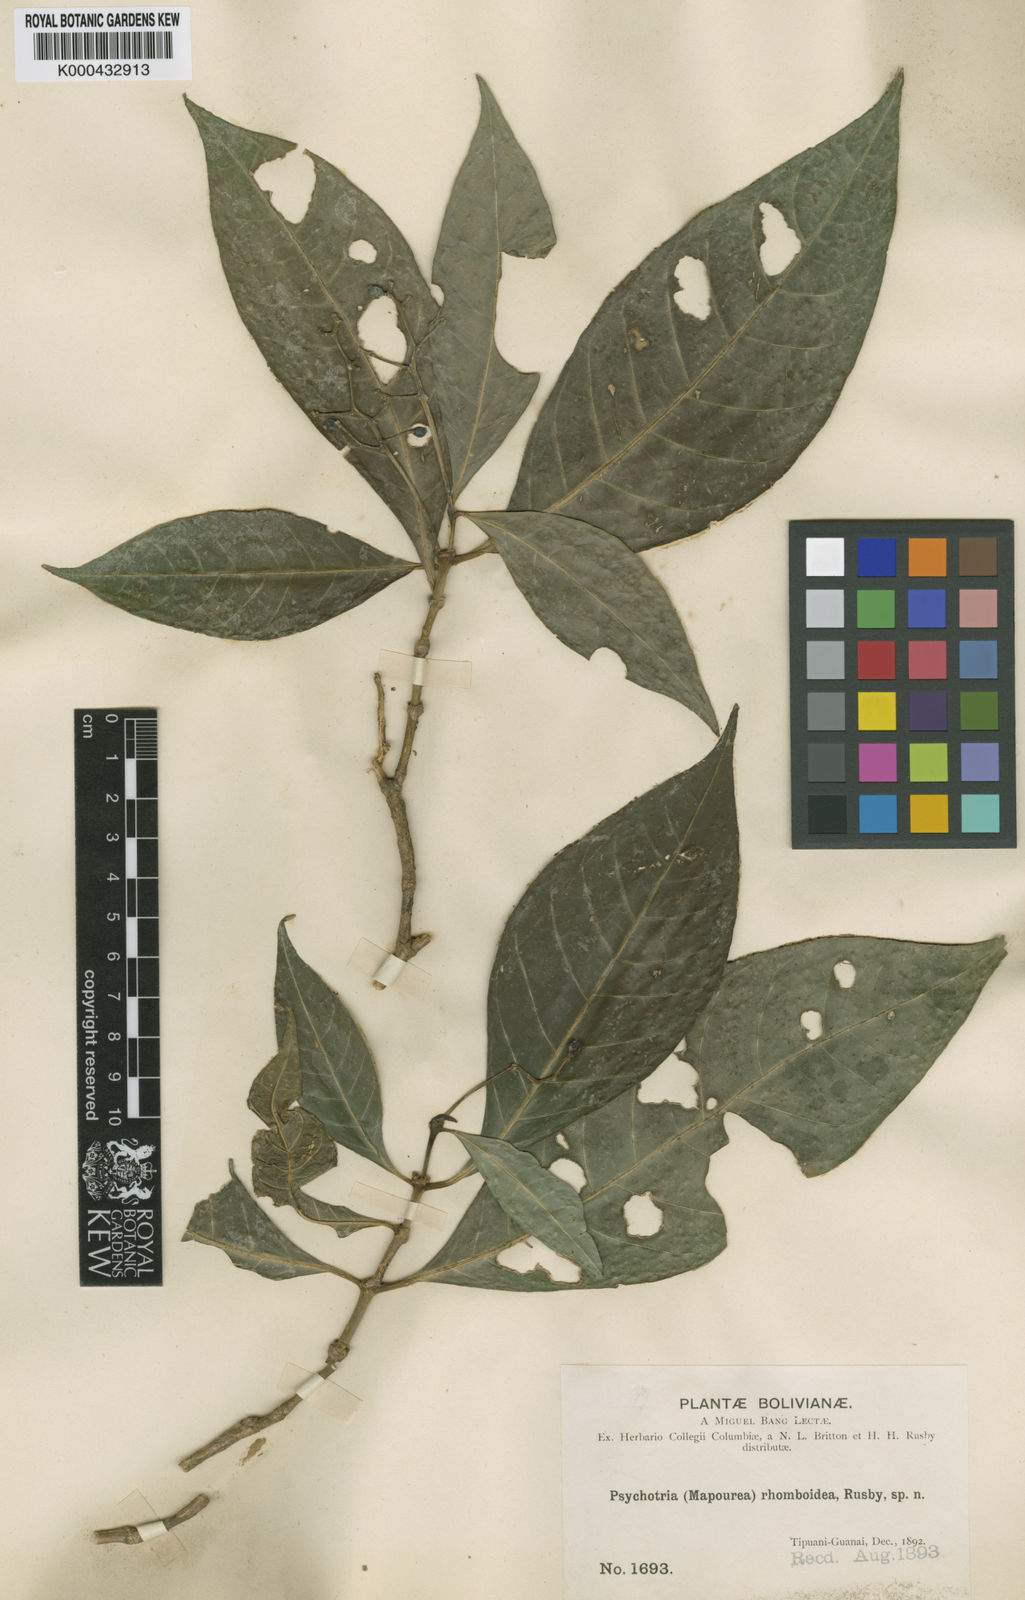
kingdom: Plantae
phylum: Tracheophyta
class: Magnoliopsida
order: Gentianales
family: Rubiaceae
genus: Psychotria
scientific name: Psychotria
